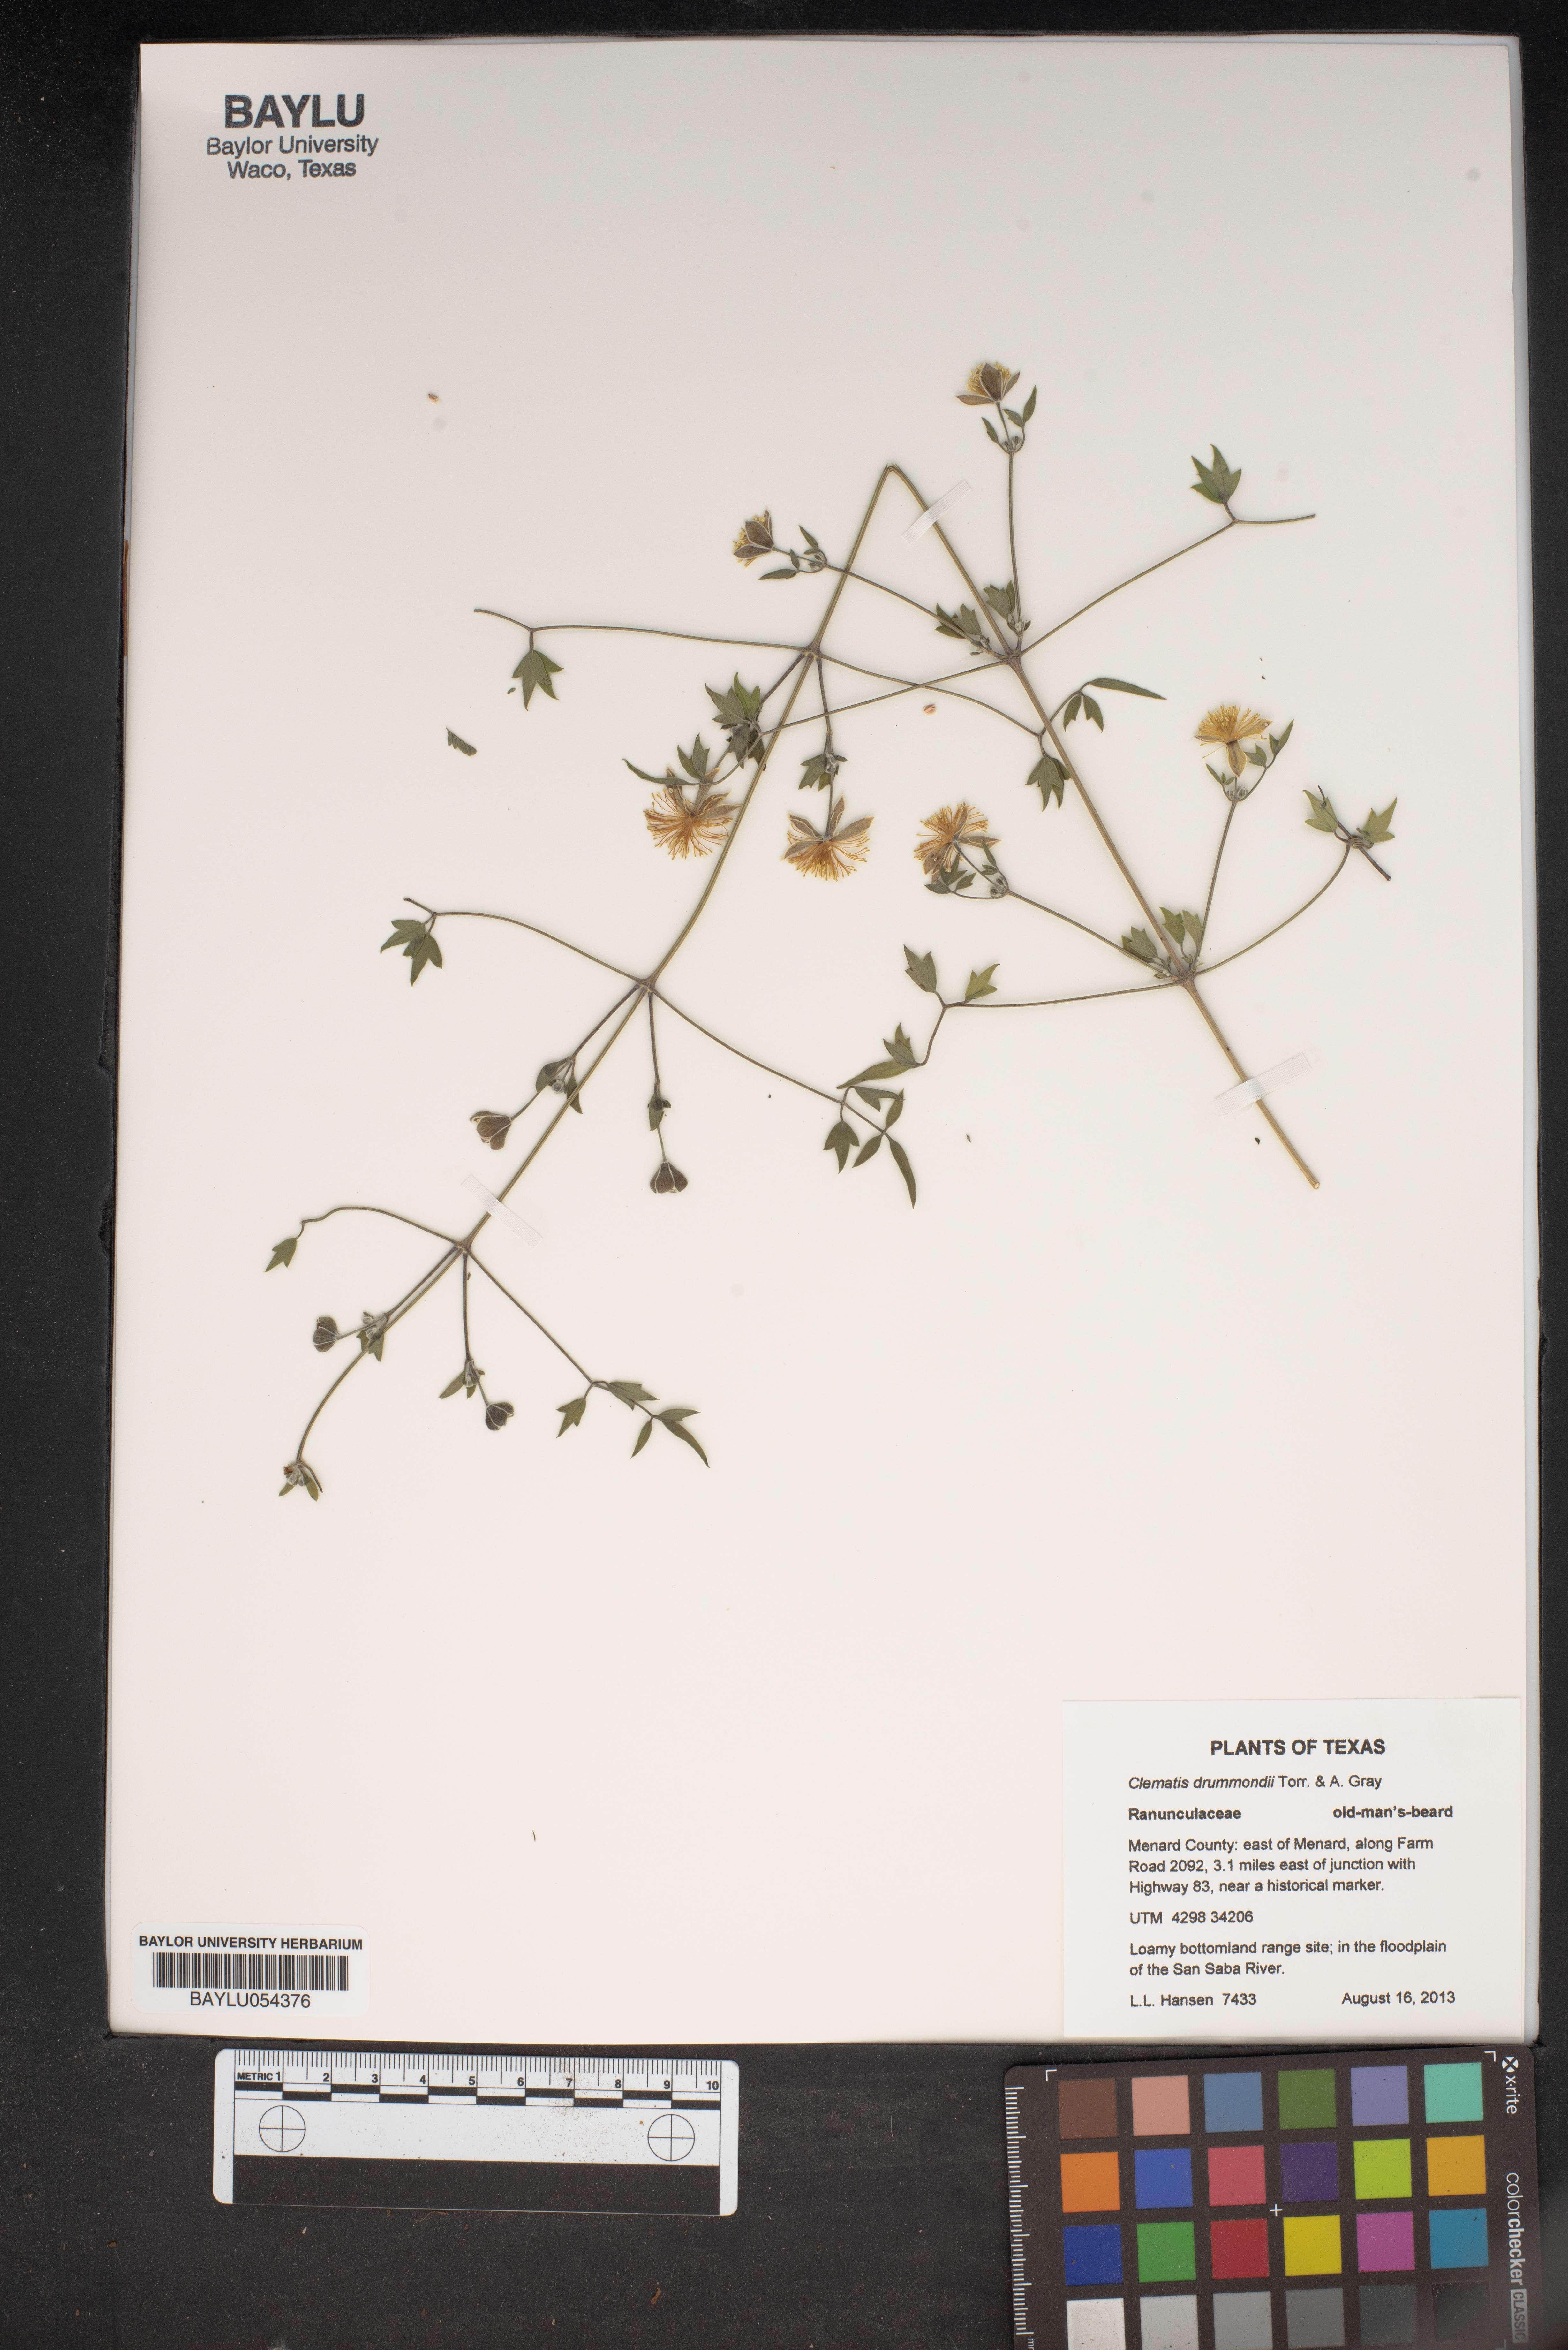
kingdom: Plantae
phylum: Tracheophyta
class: Magnoliopsida
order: Ranunculales
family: Ranunculaceae
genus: Clematis
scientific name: Clematis drummondii
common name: Texas virgin's bower
